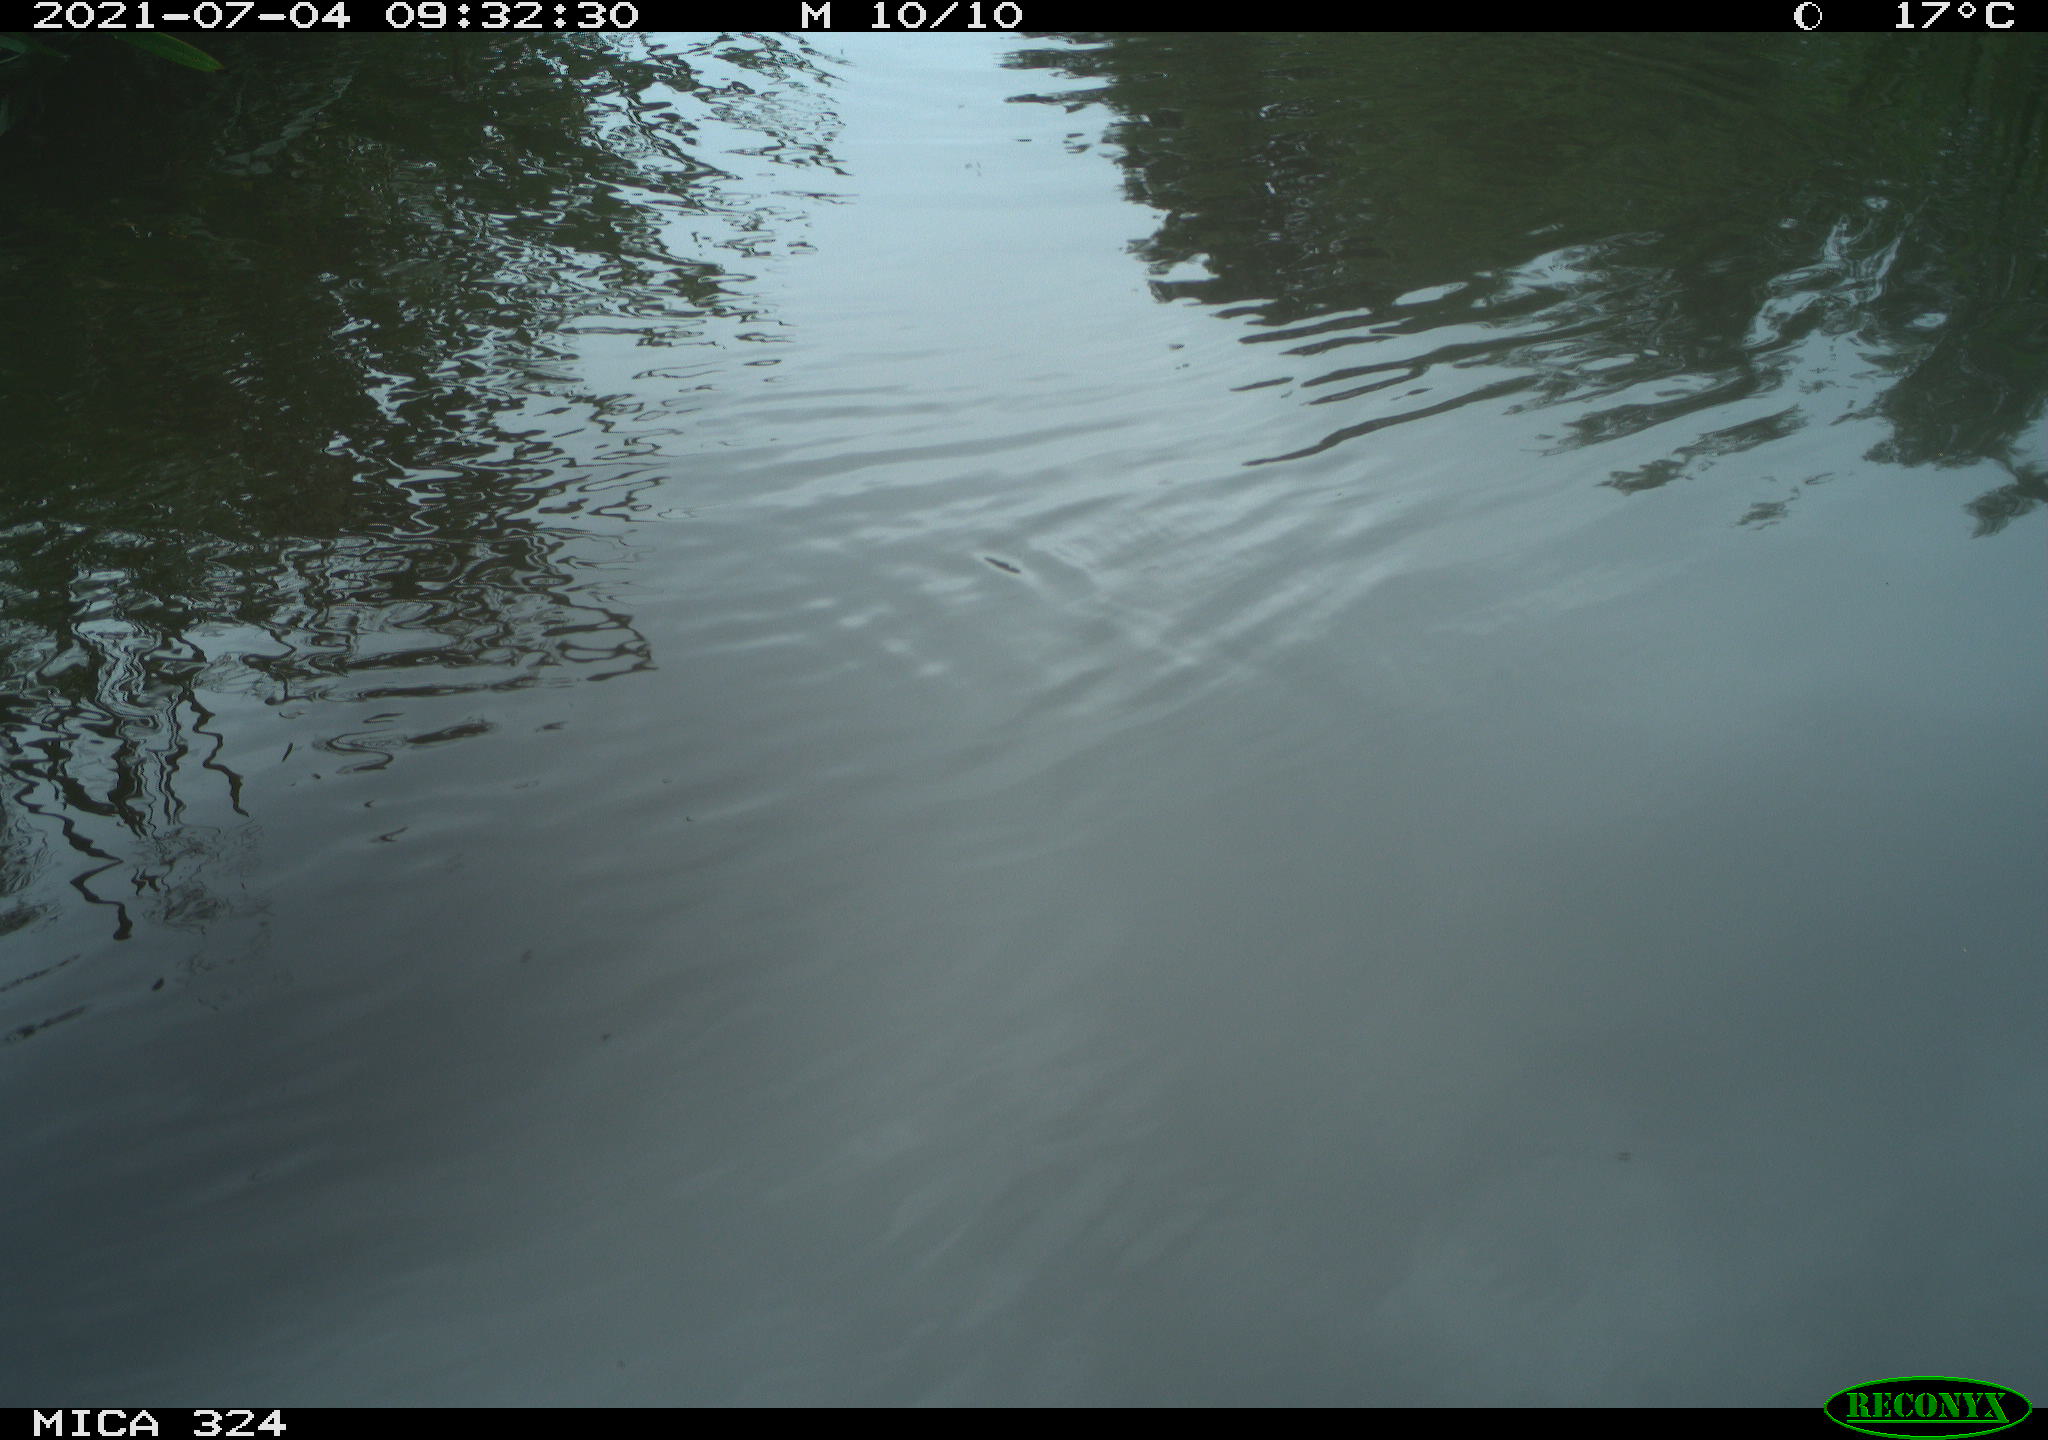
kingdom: Animalia
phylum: Chordata
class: Mammalia
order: Rodentia
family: Cricetidae
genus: Ondatra
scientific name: Ondatra zibethicus
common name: Muskrat
